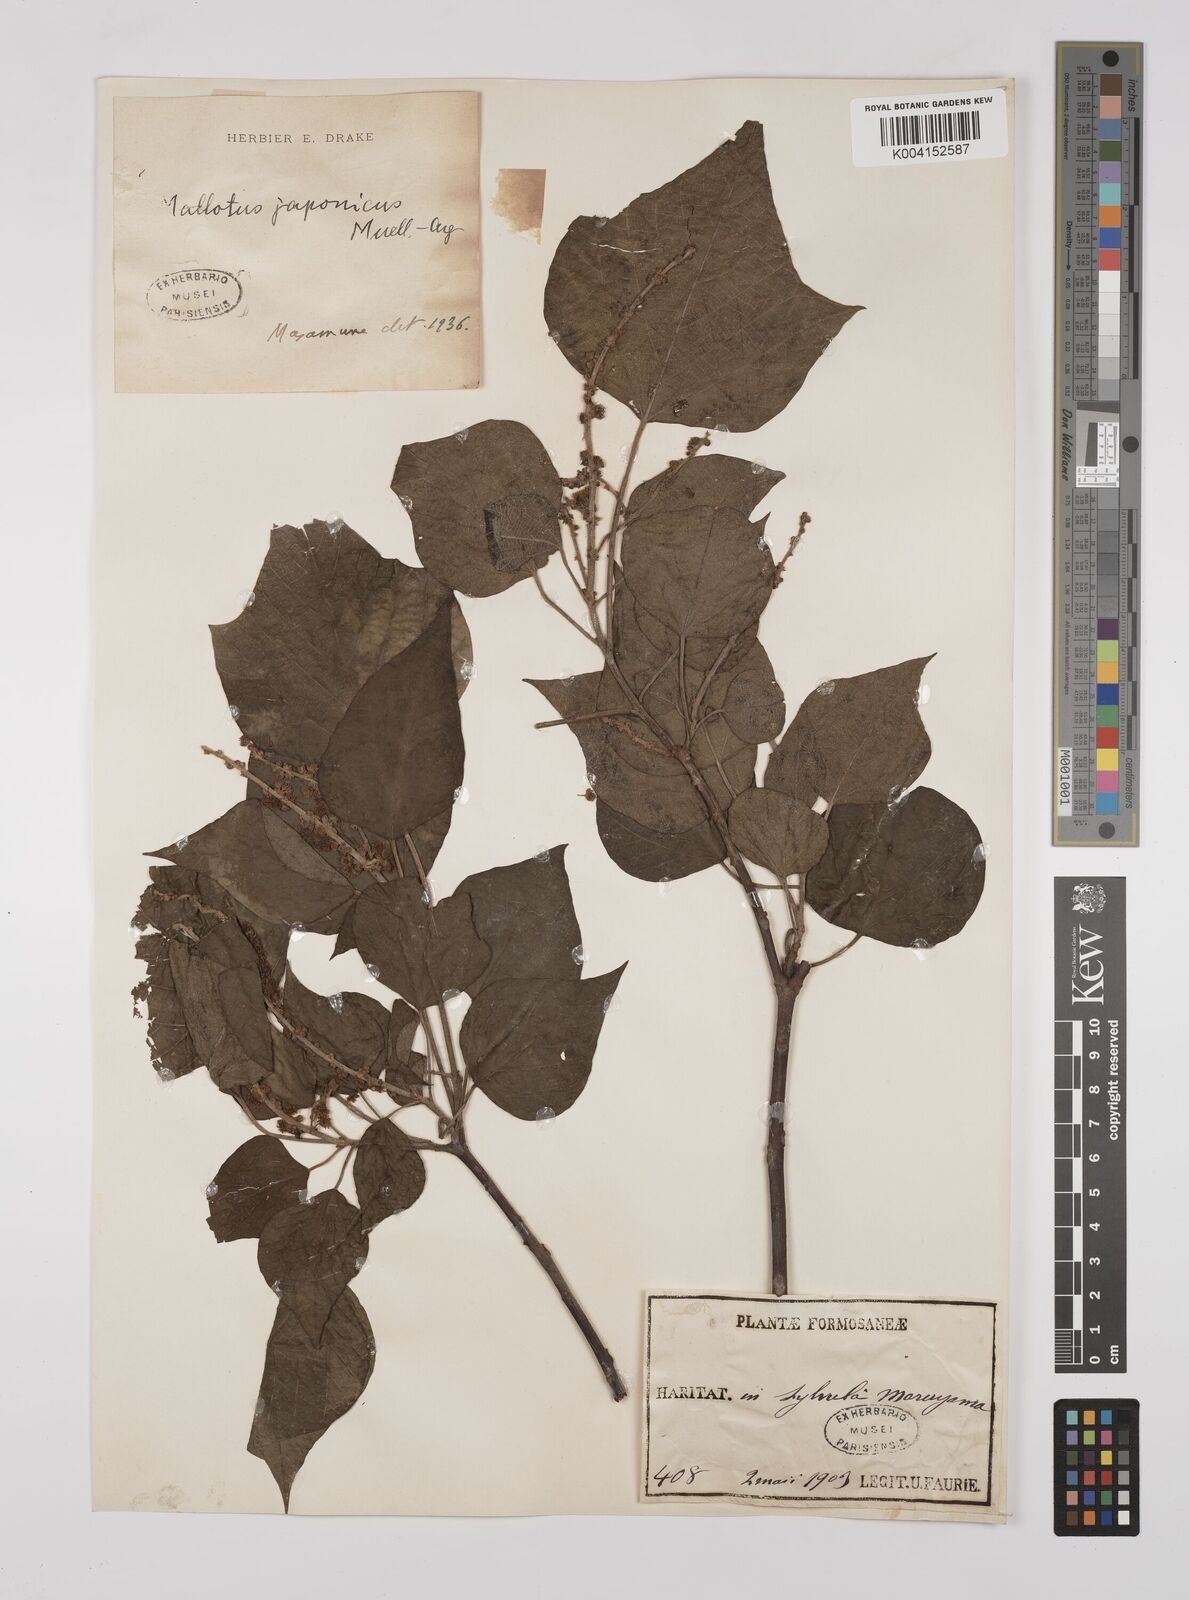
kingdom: Plantae
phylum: Tracheophyta
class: Magnoliopsida
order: Malpighiales
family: Euphorbiaceae
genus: Mallotus
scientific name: Mallotus japonicus
